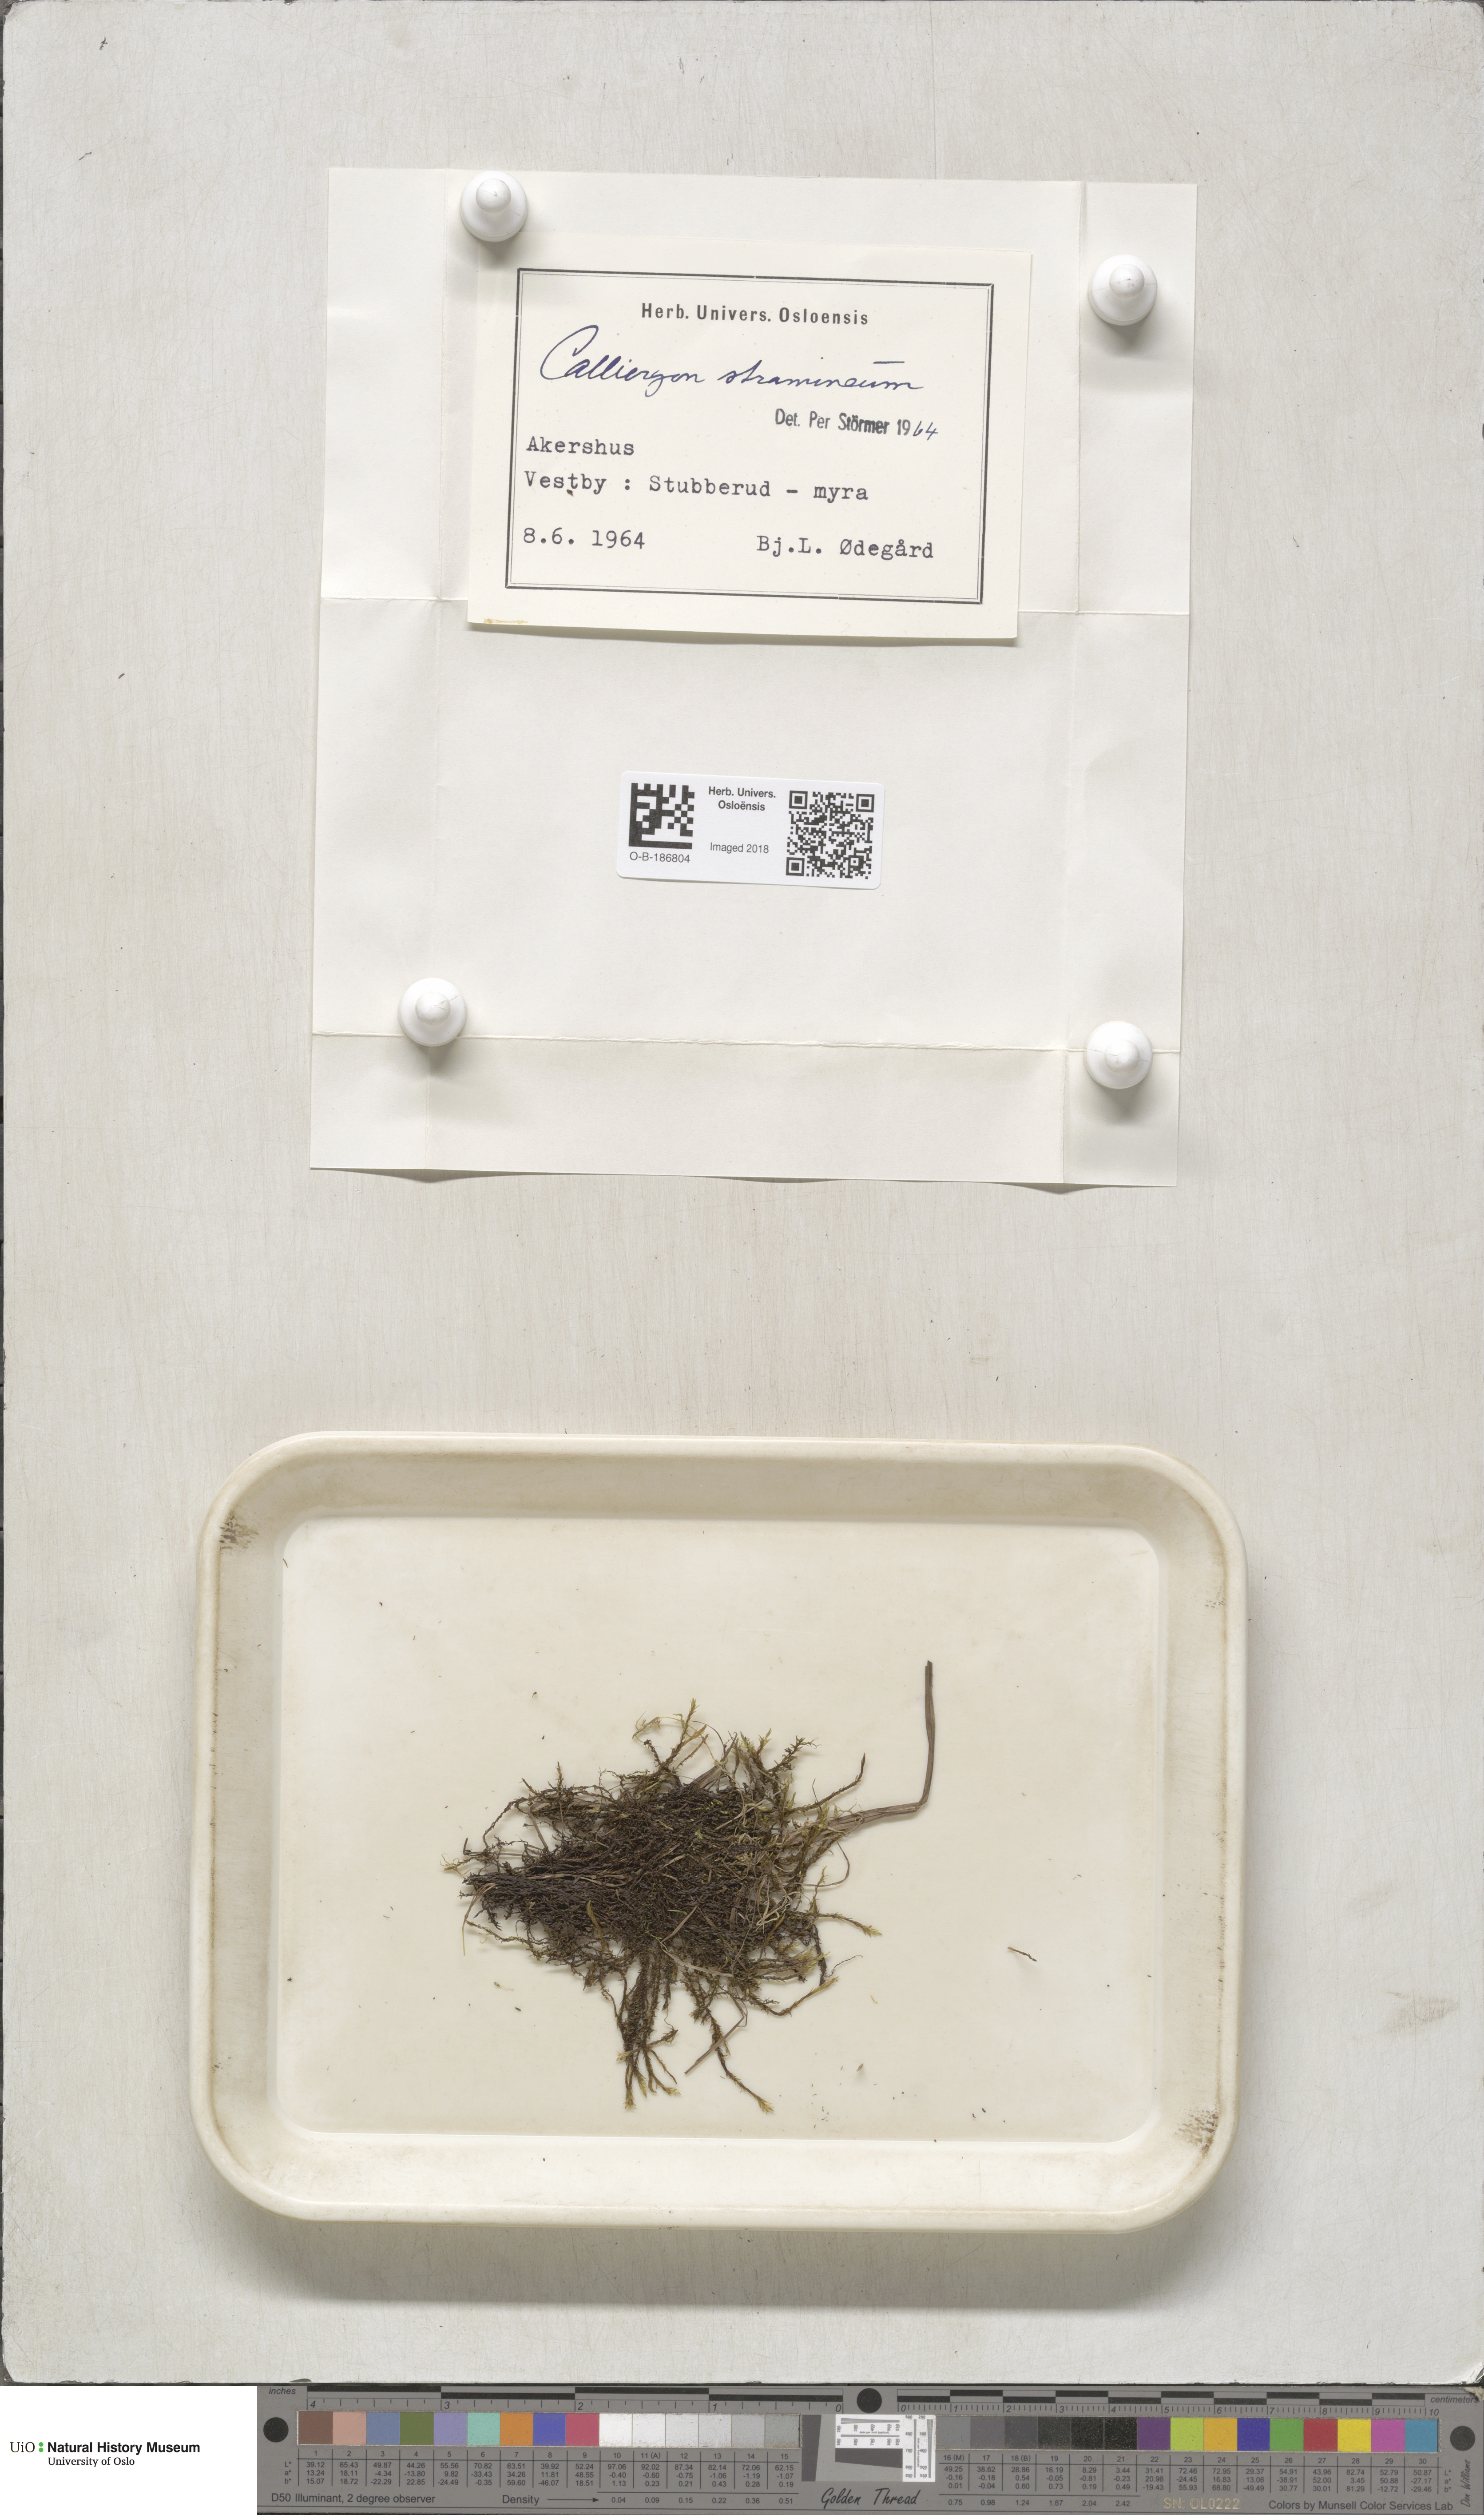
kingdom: Plantae
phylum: Bryophyta
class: Bryopsida
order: Hypnales
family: Calliergonaceae
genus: Straminergon
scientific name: Straminergon stramineum
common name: Straw moss
